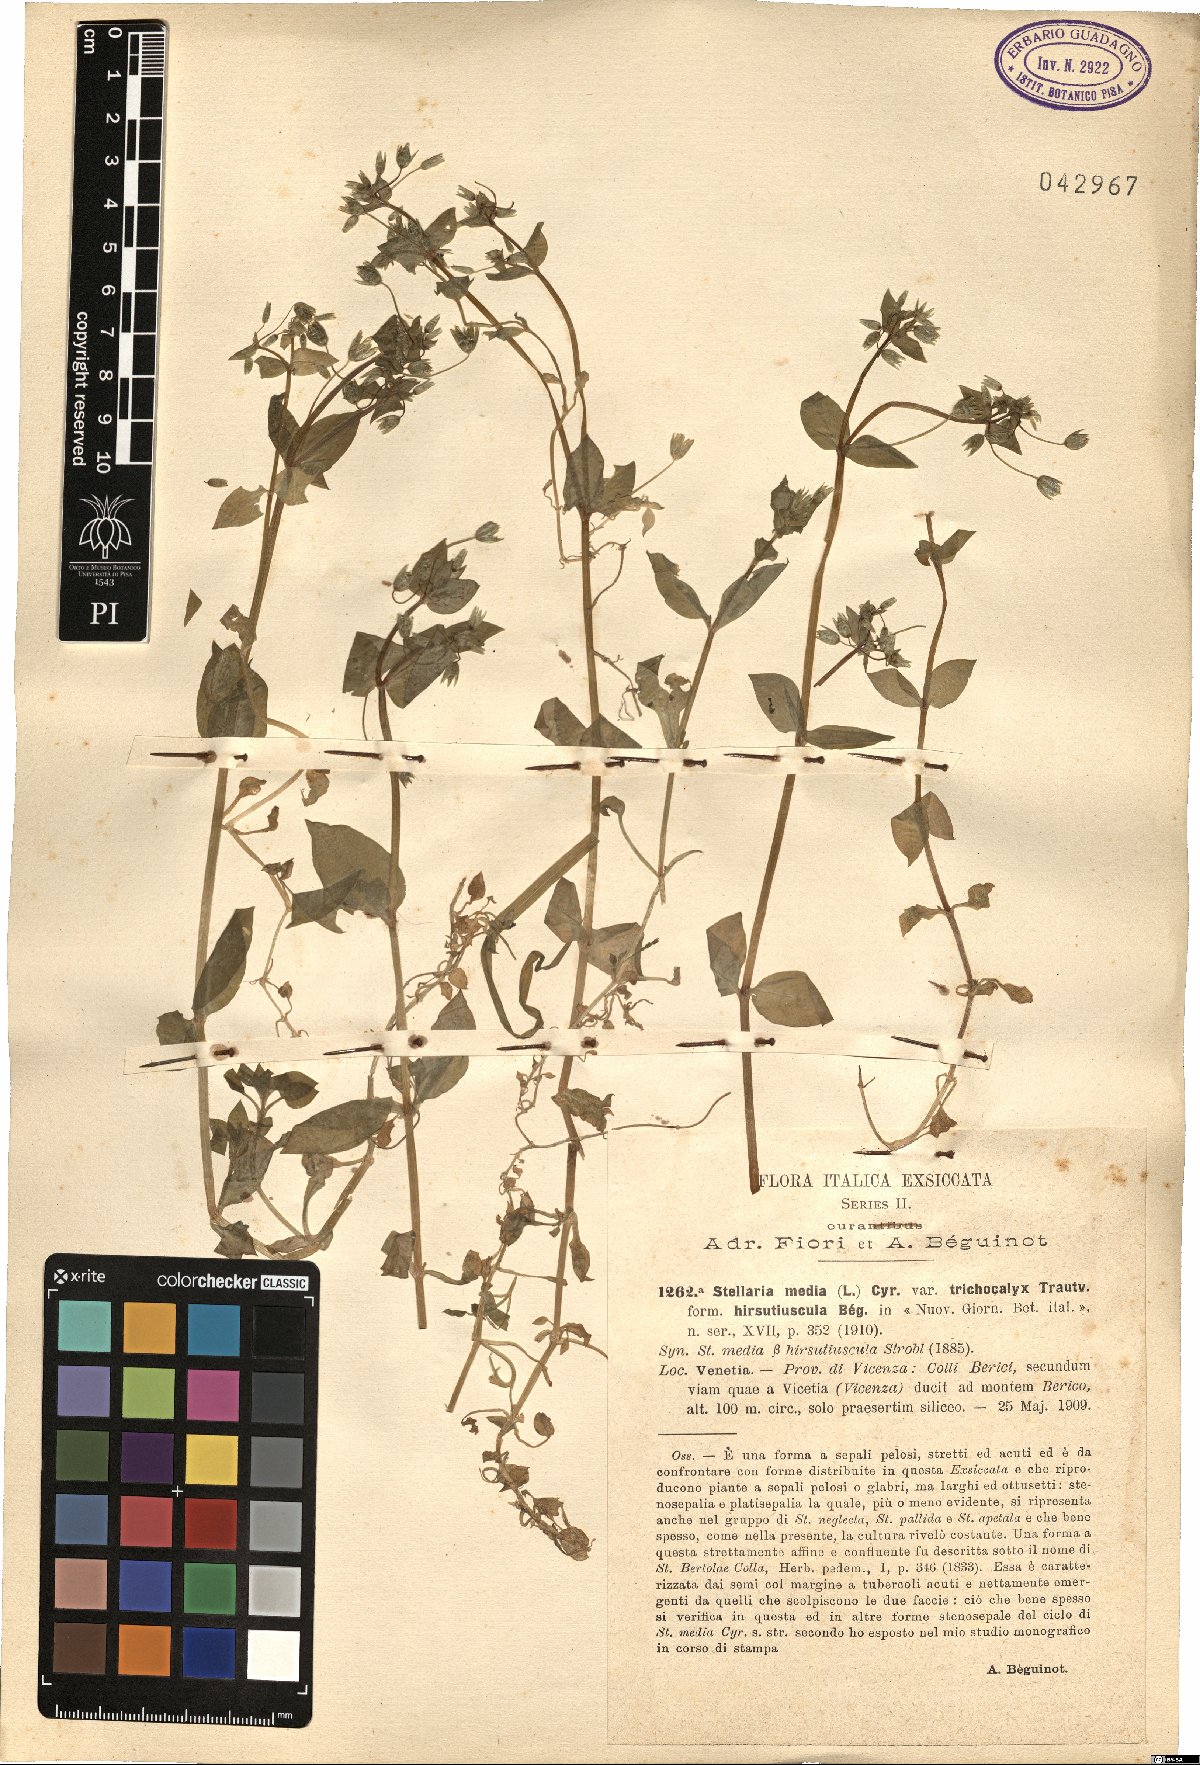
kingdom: Plantae
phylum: Tracheophyta
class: Magnoliopsida
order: Caryophyllales
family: Caryophyllaceae
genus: Stellaria
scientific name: Stellaria media
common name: Common chickweed
